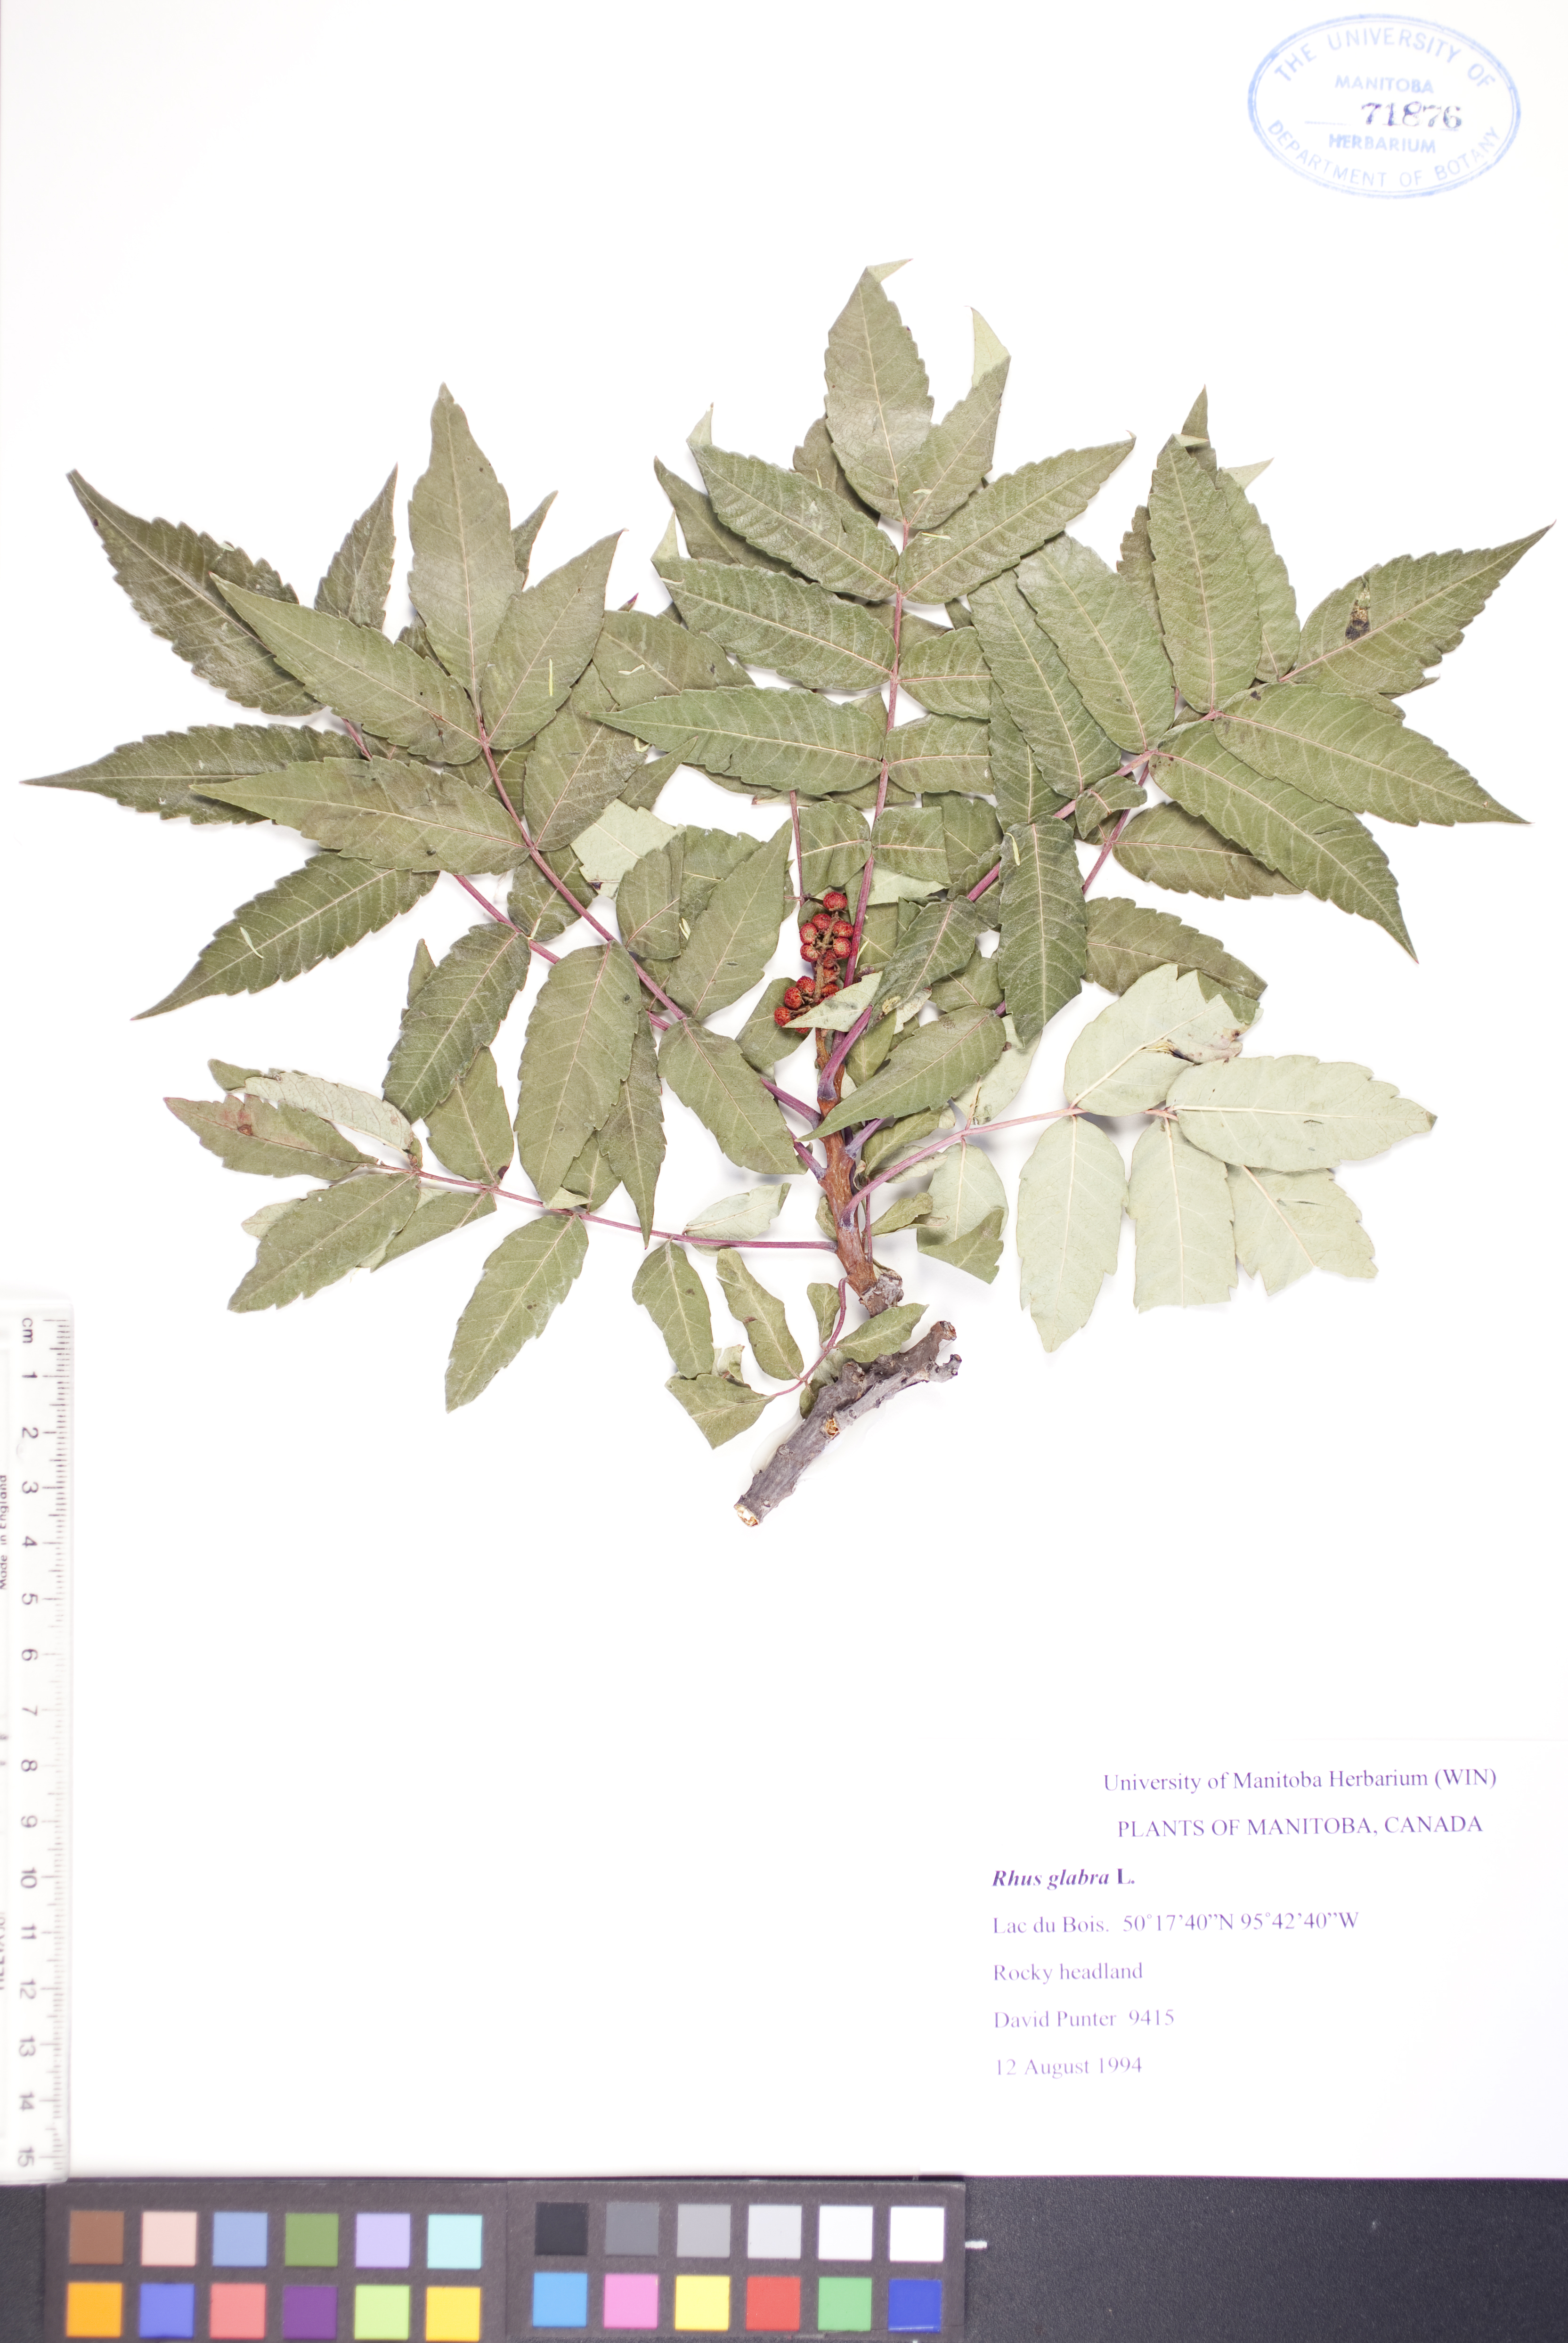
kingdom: Plantae
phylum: Tracheophyta
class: Magnoliopsida
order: Sapindales
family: Anacardiaceae
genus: Rhus
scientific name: Rhus glabra
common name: Scarlet sumac
